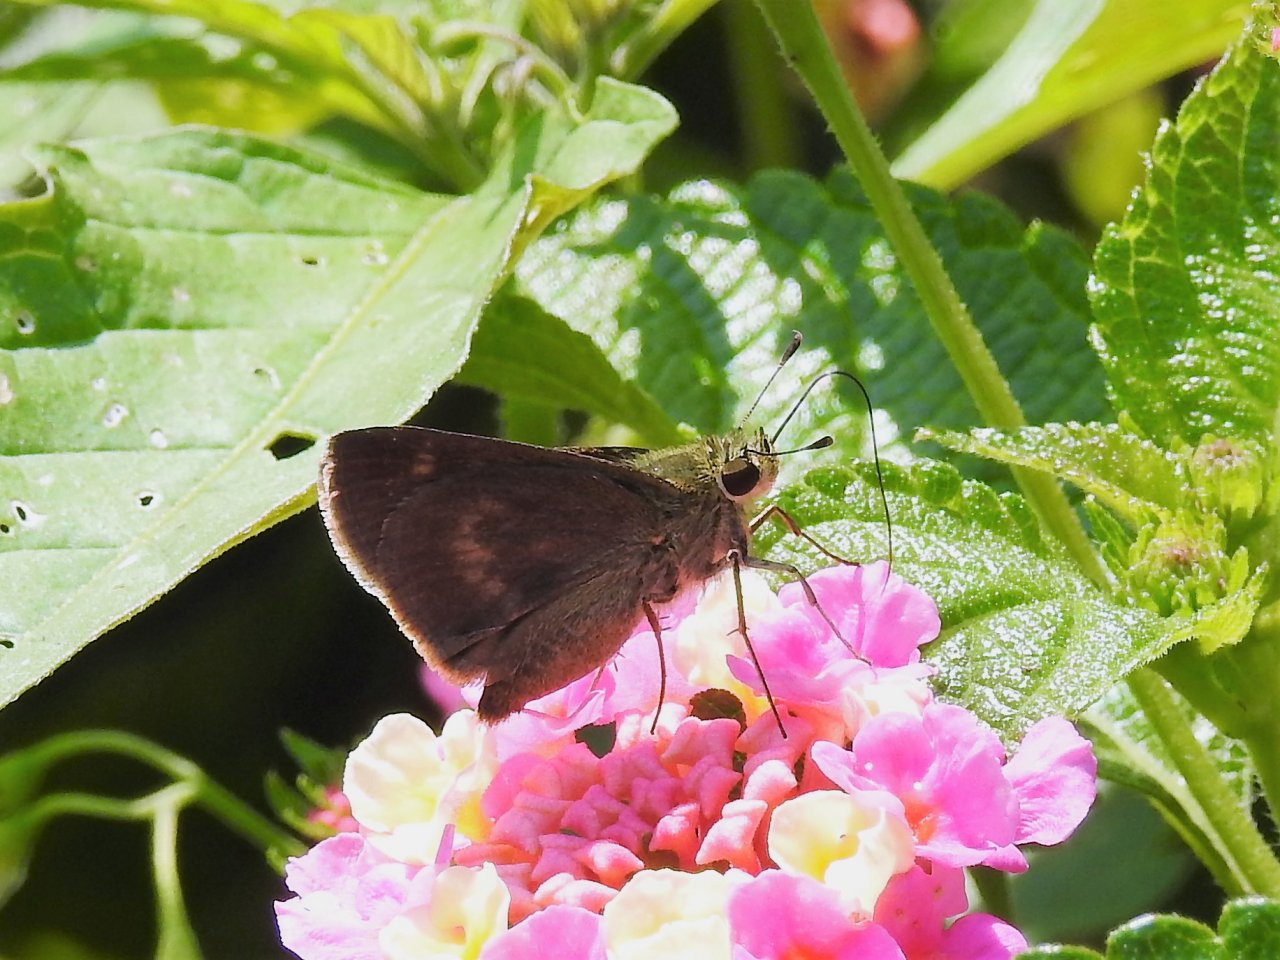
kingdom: Animalia
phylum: Arthropoda
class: Insecta
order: Lepidoptera
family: Hesperiidae
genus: Polites
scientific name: Polites egeremet
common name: Northern Broken-Dash
